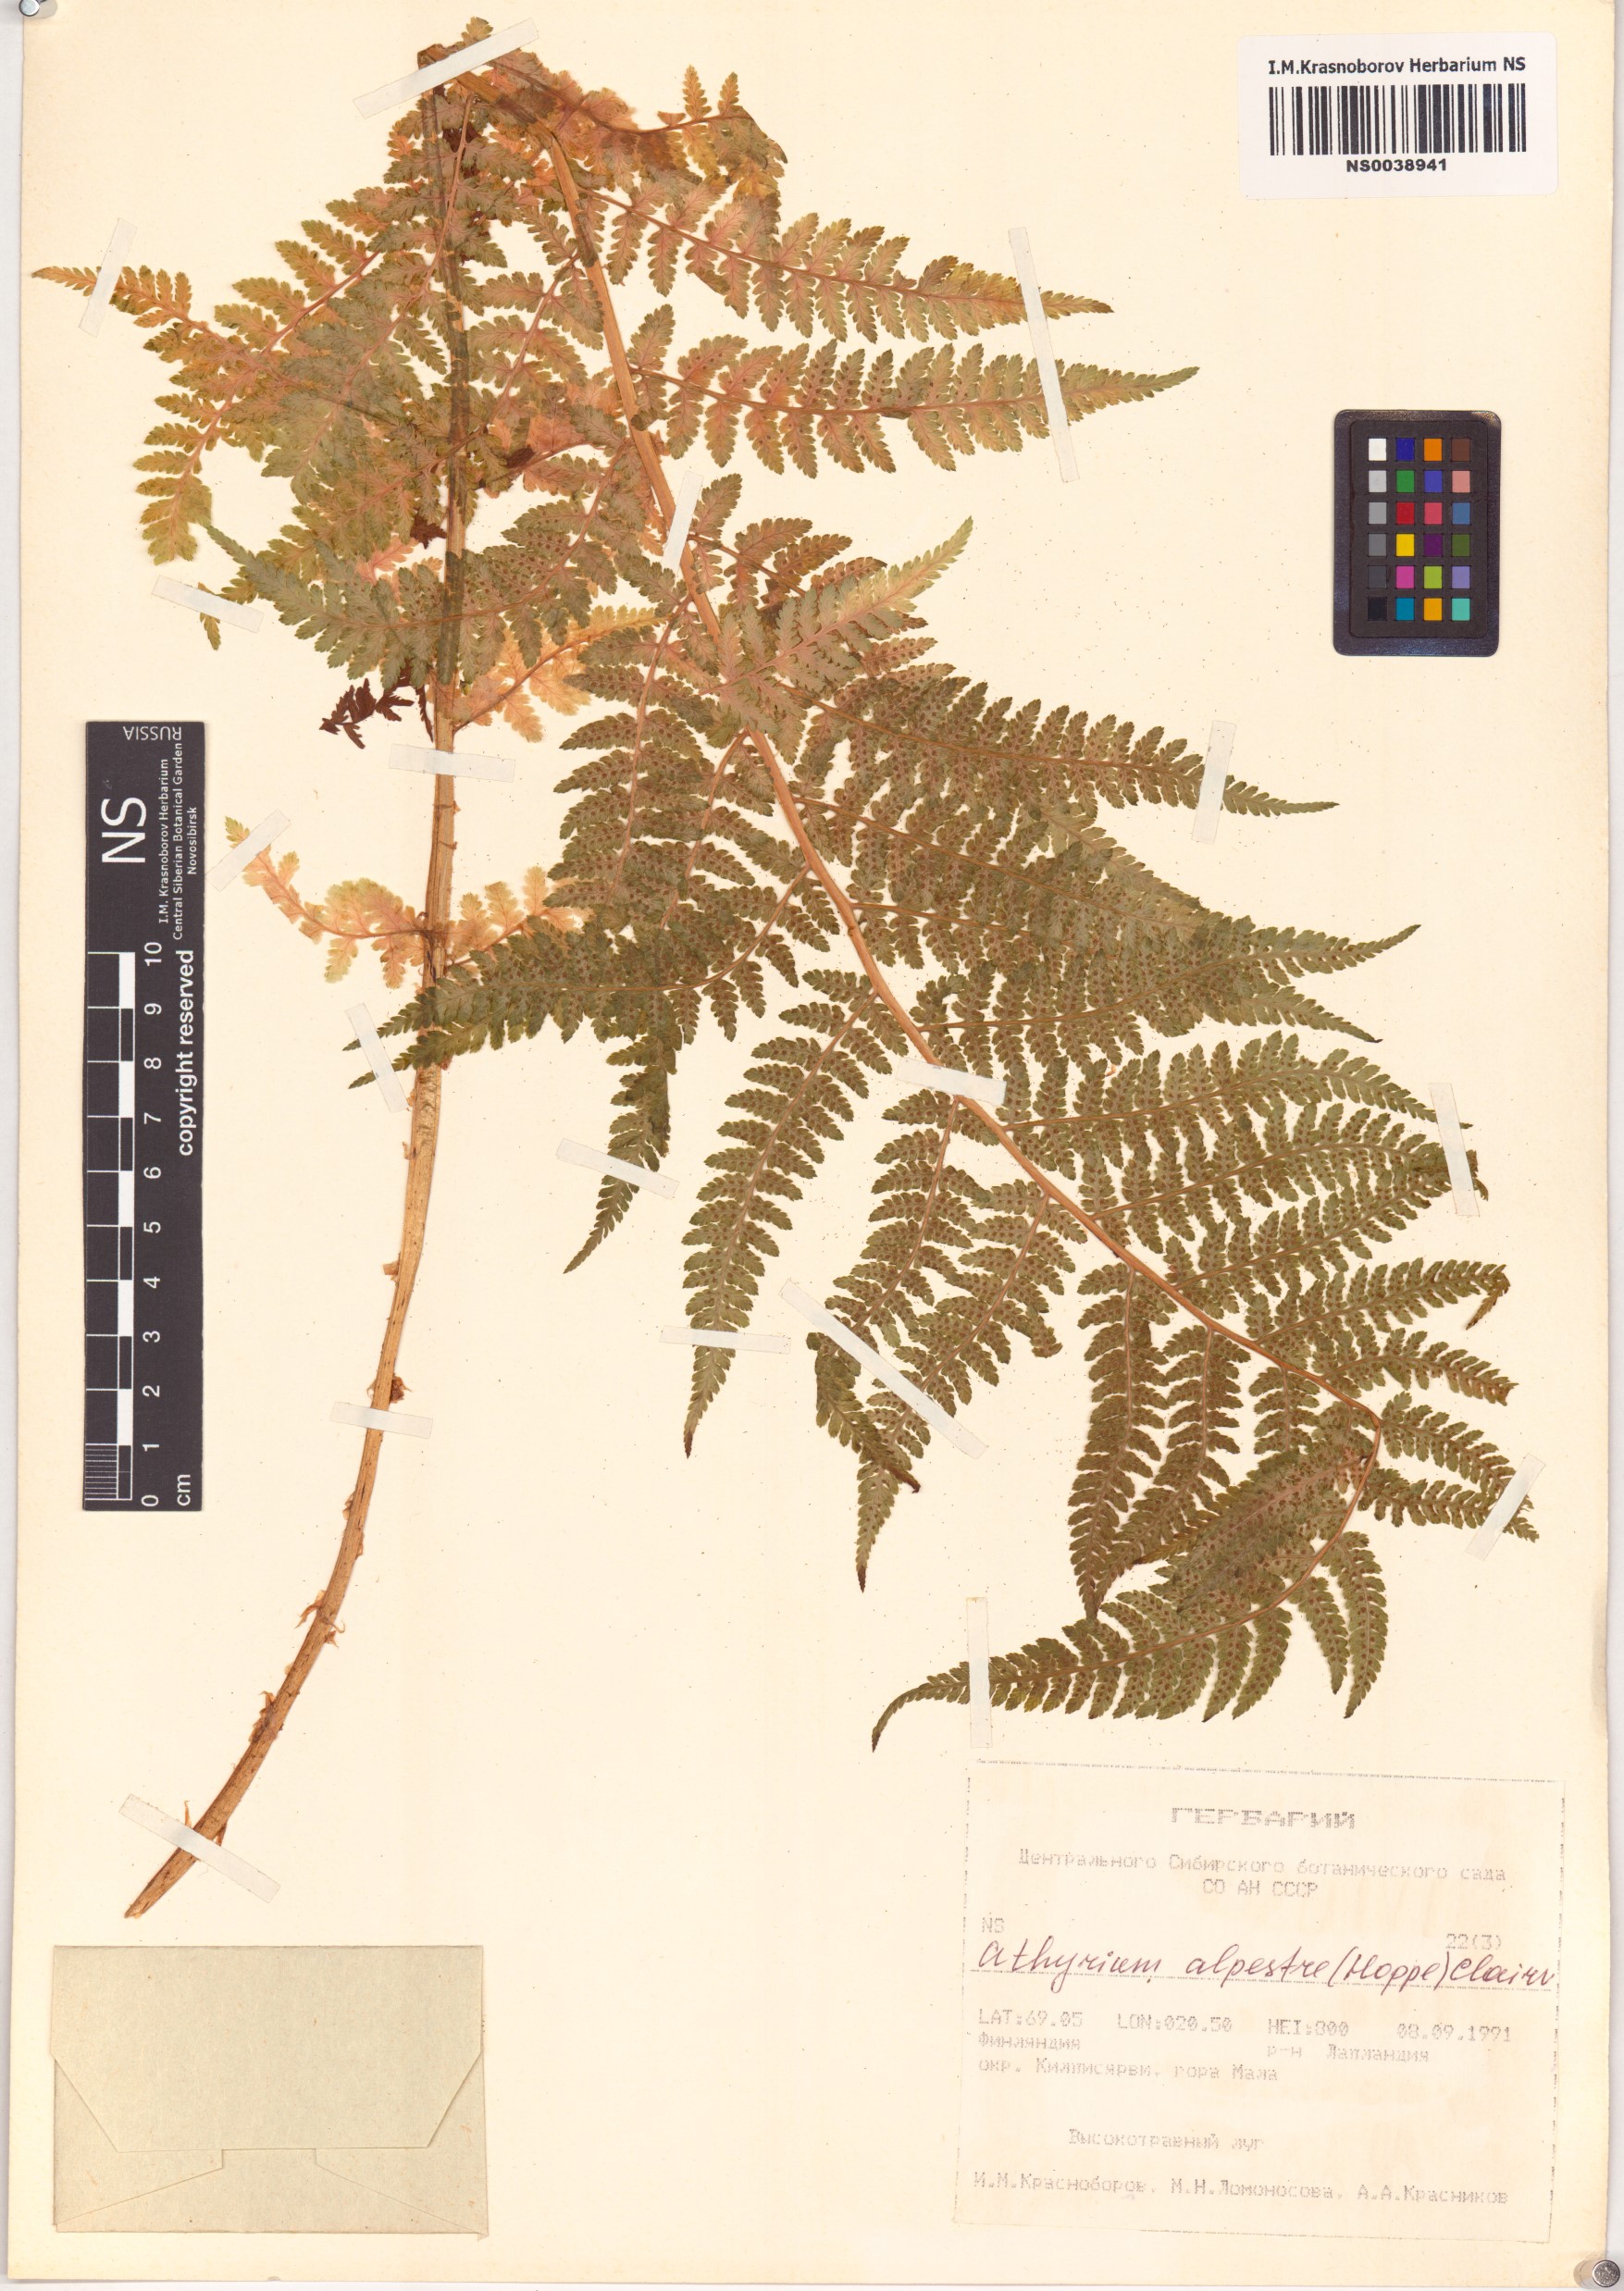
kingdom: Plantae
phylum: Tracheophyta
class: Polypodiopsida
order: Polypodiales
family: Athyriaceae
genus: Pseudathyrium
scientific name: Pseudathyrium alpestre
